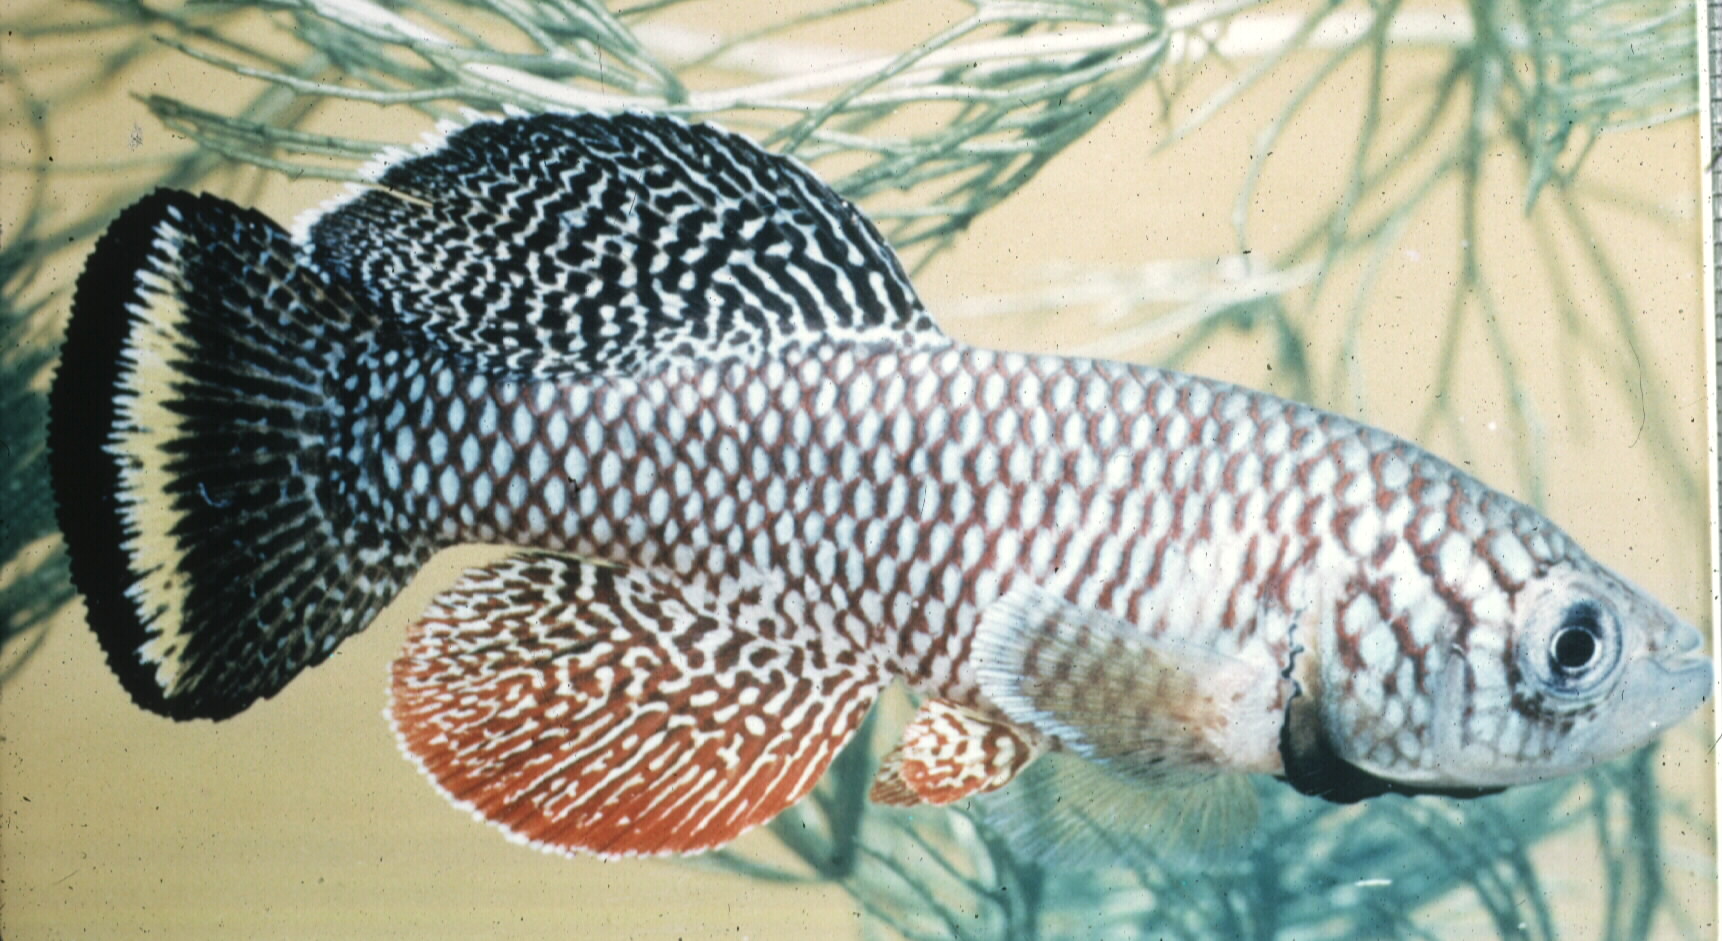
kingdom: Animalia
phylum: Chordata
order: Cyprinodontiformes
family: Nothobranchiidae
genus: Nothobranchius
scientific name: Nothobranchius furzeri
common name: African turquoise killifish
